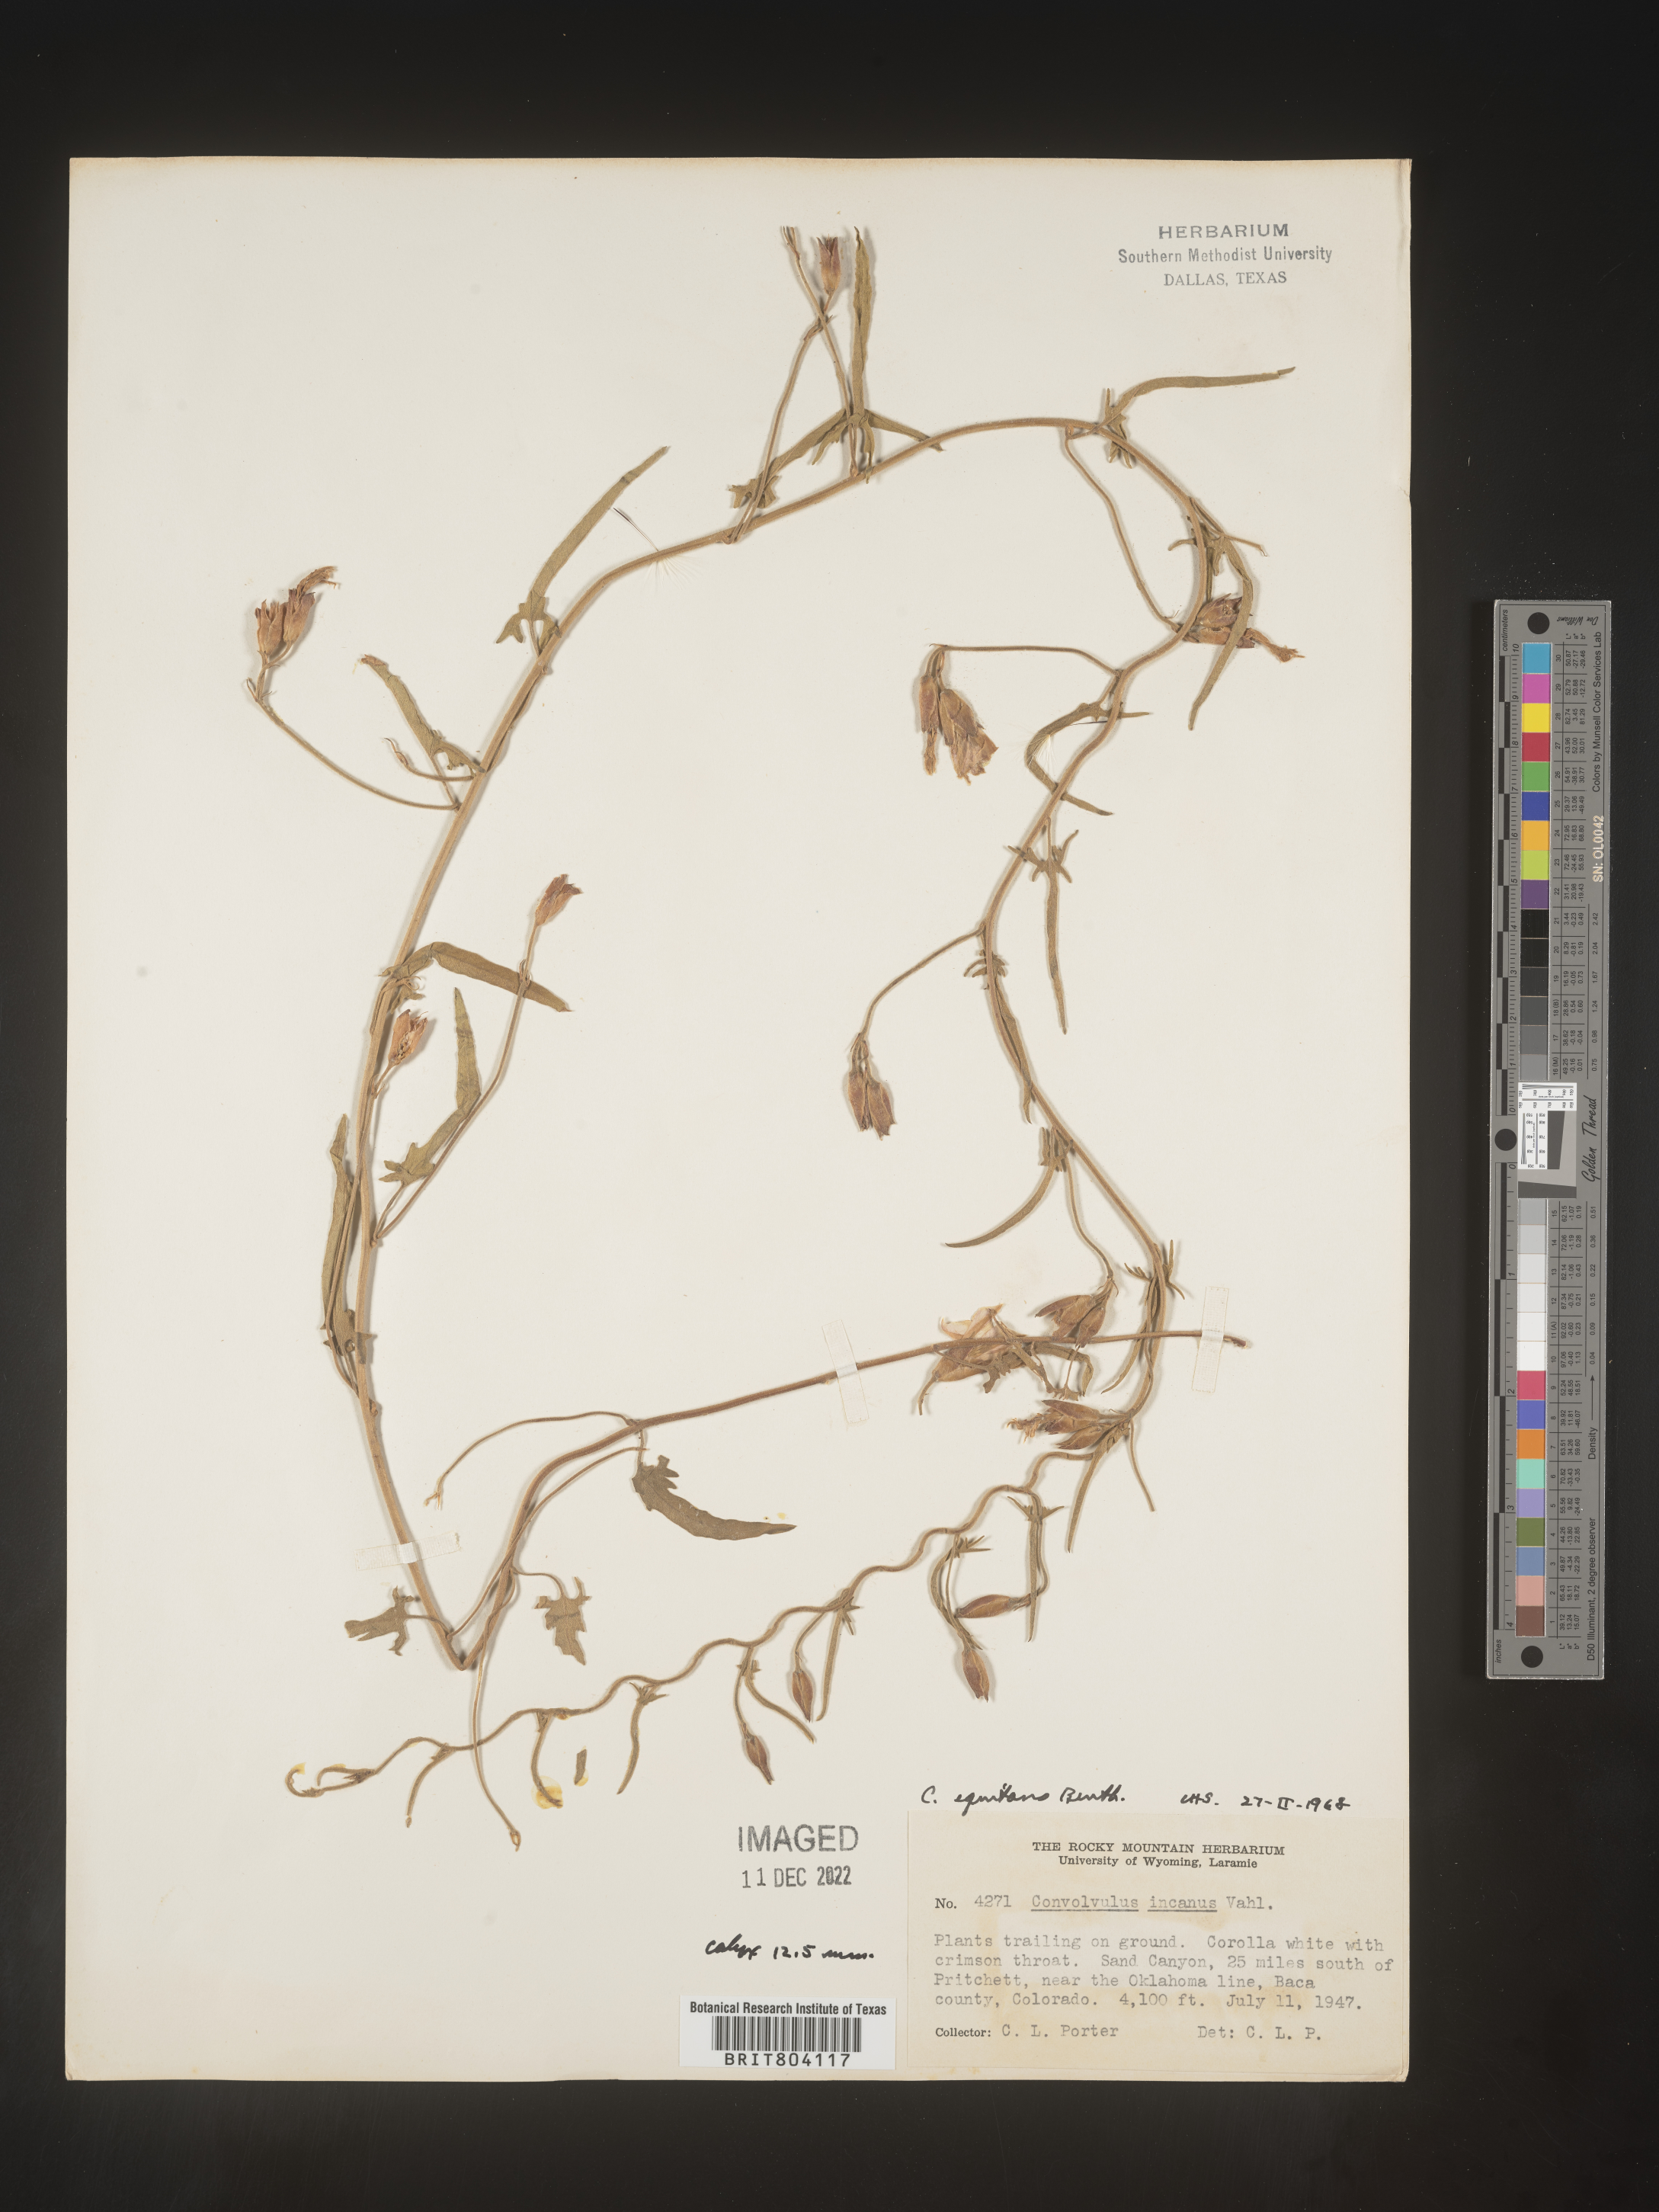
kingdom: Plantae
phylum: Tracheophyta
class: Magnoliopsida
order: Solanales
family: Convolvulaceae
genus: Convolvulus
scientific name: Convolvulus equitans
